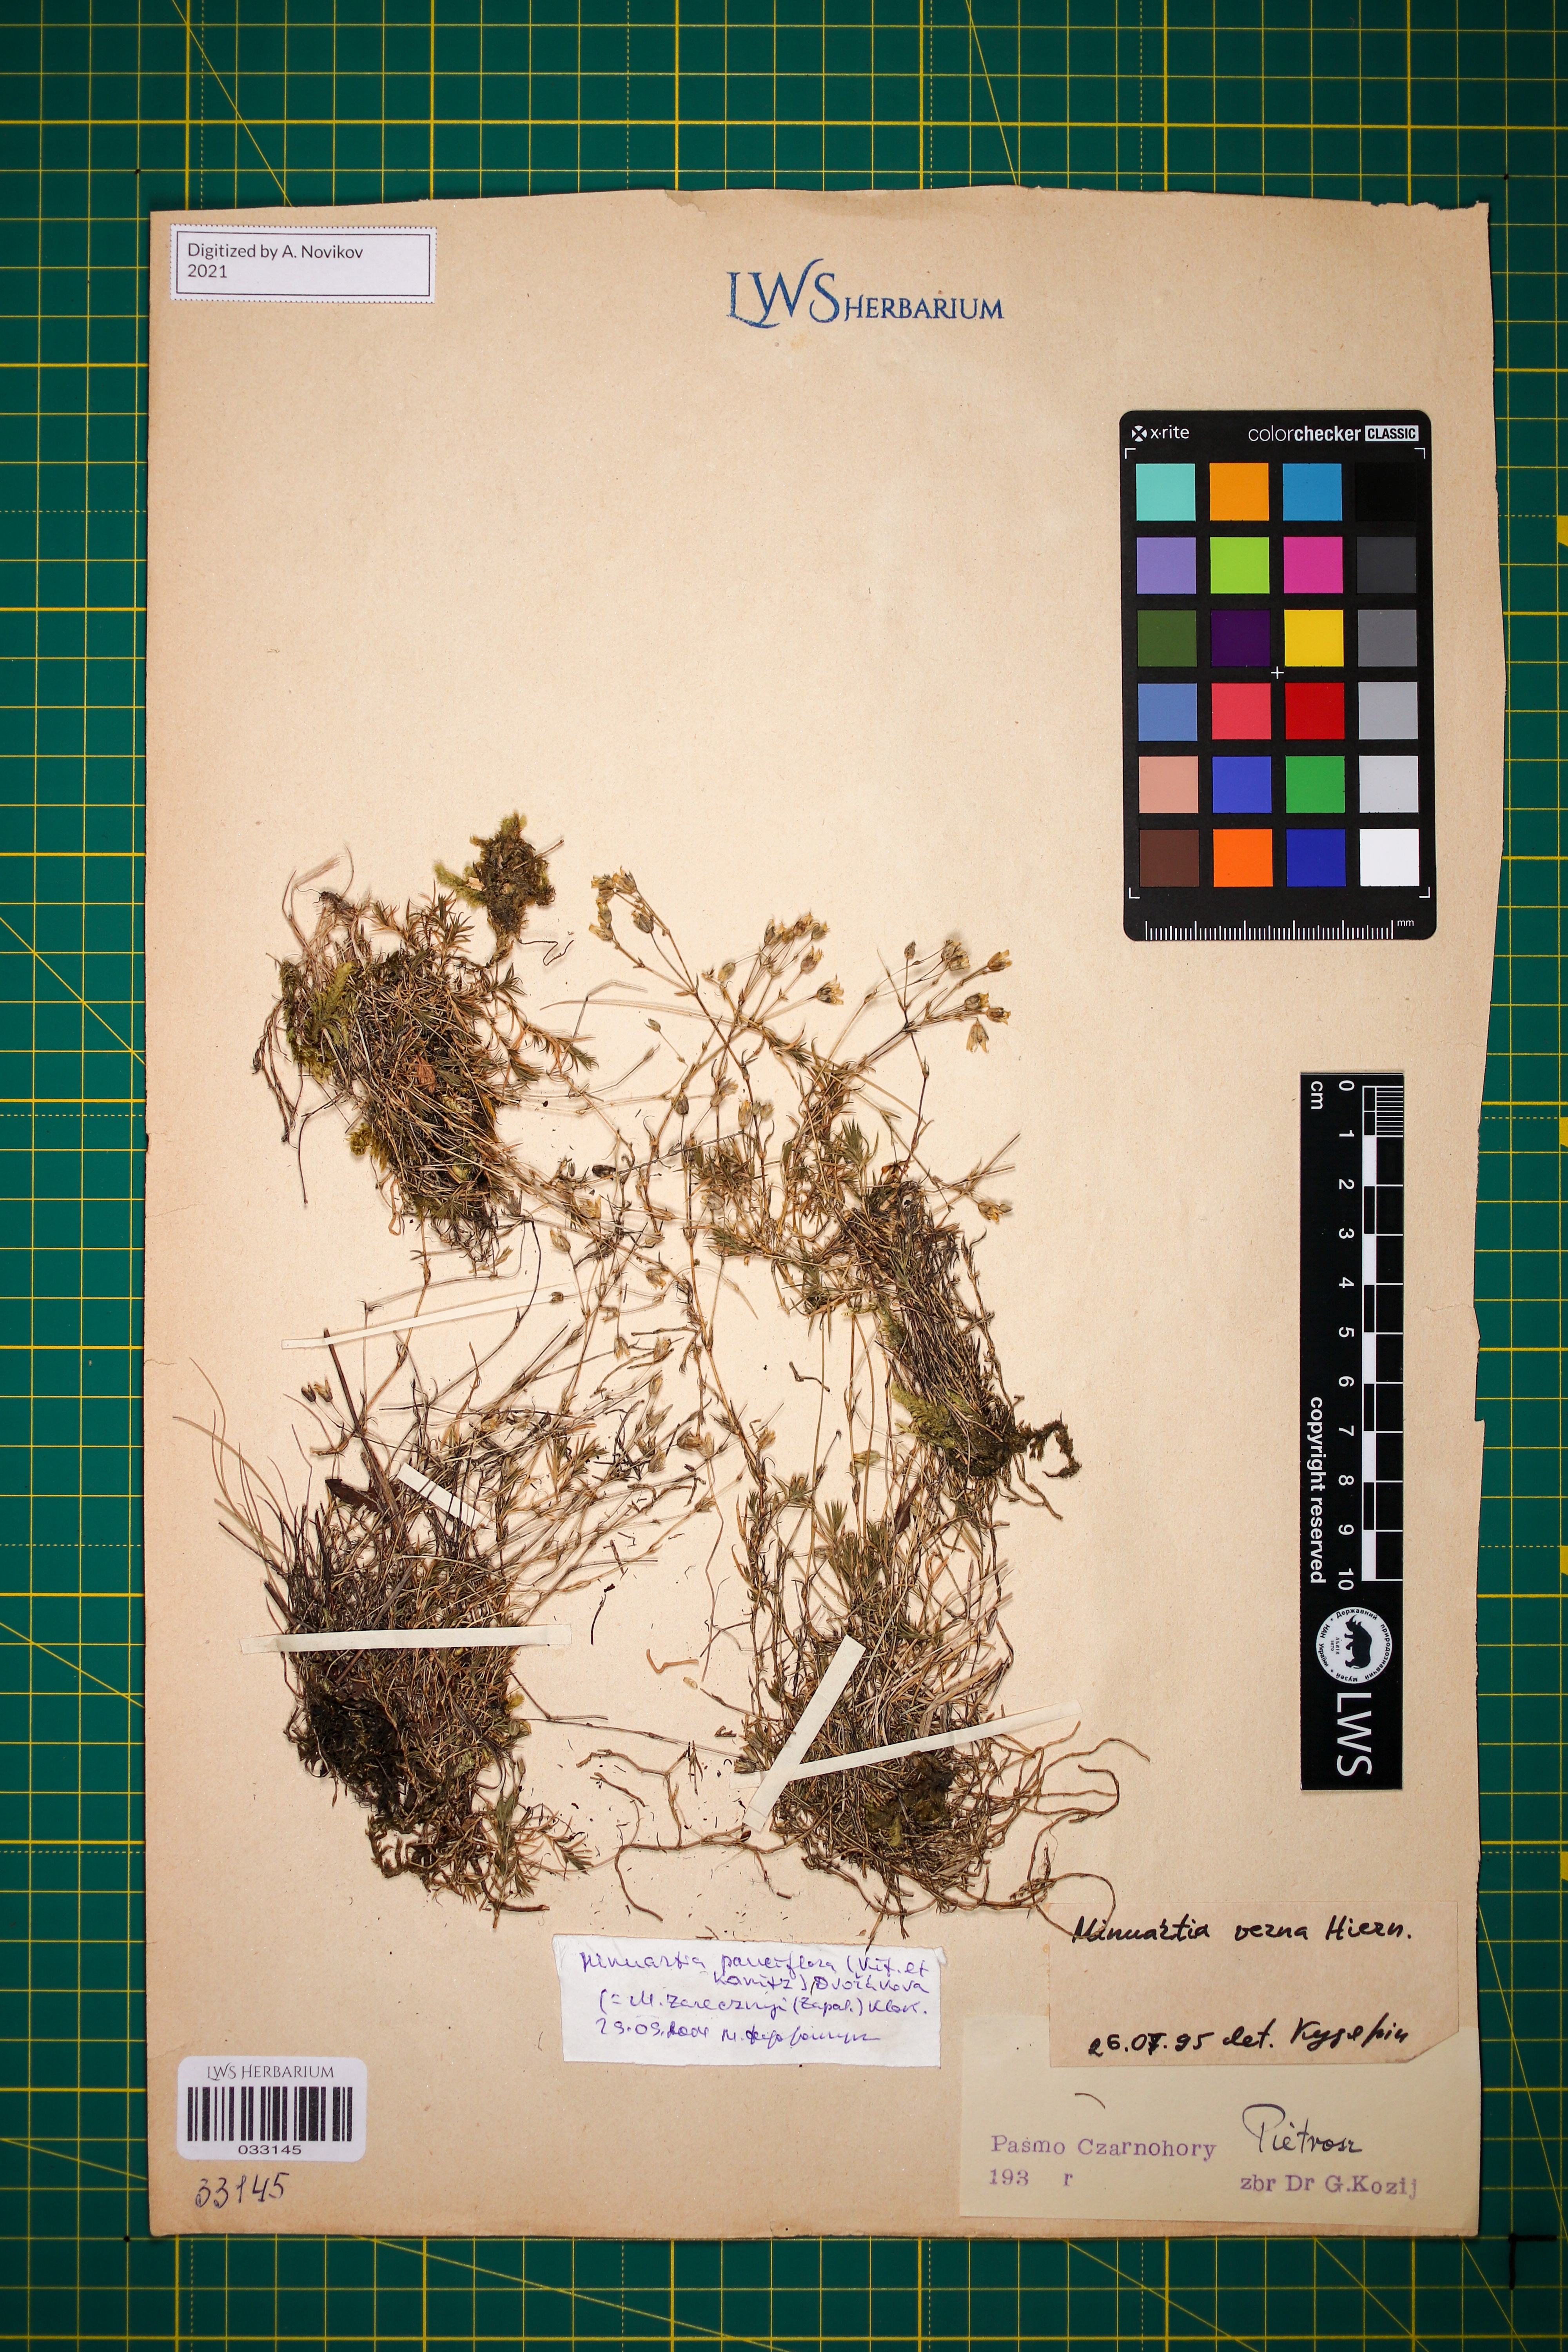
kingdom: Plantae
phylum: Tracheophyta
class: Magnoliopsida
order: Caryophyllales
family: Caryophyllaceae
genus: Minuartia
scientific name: Minuartia pauciflora
